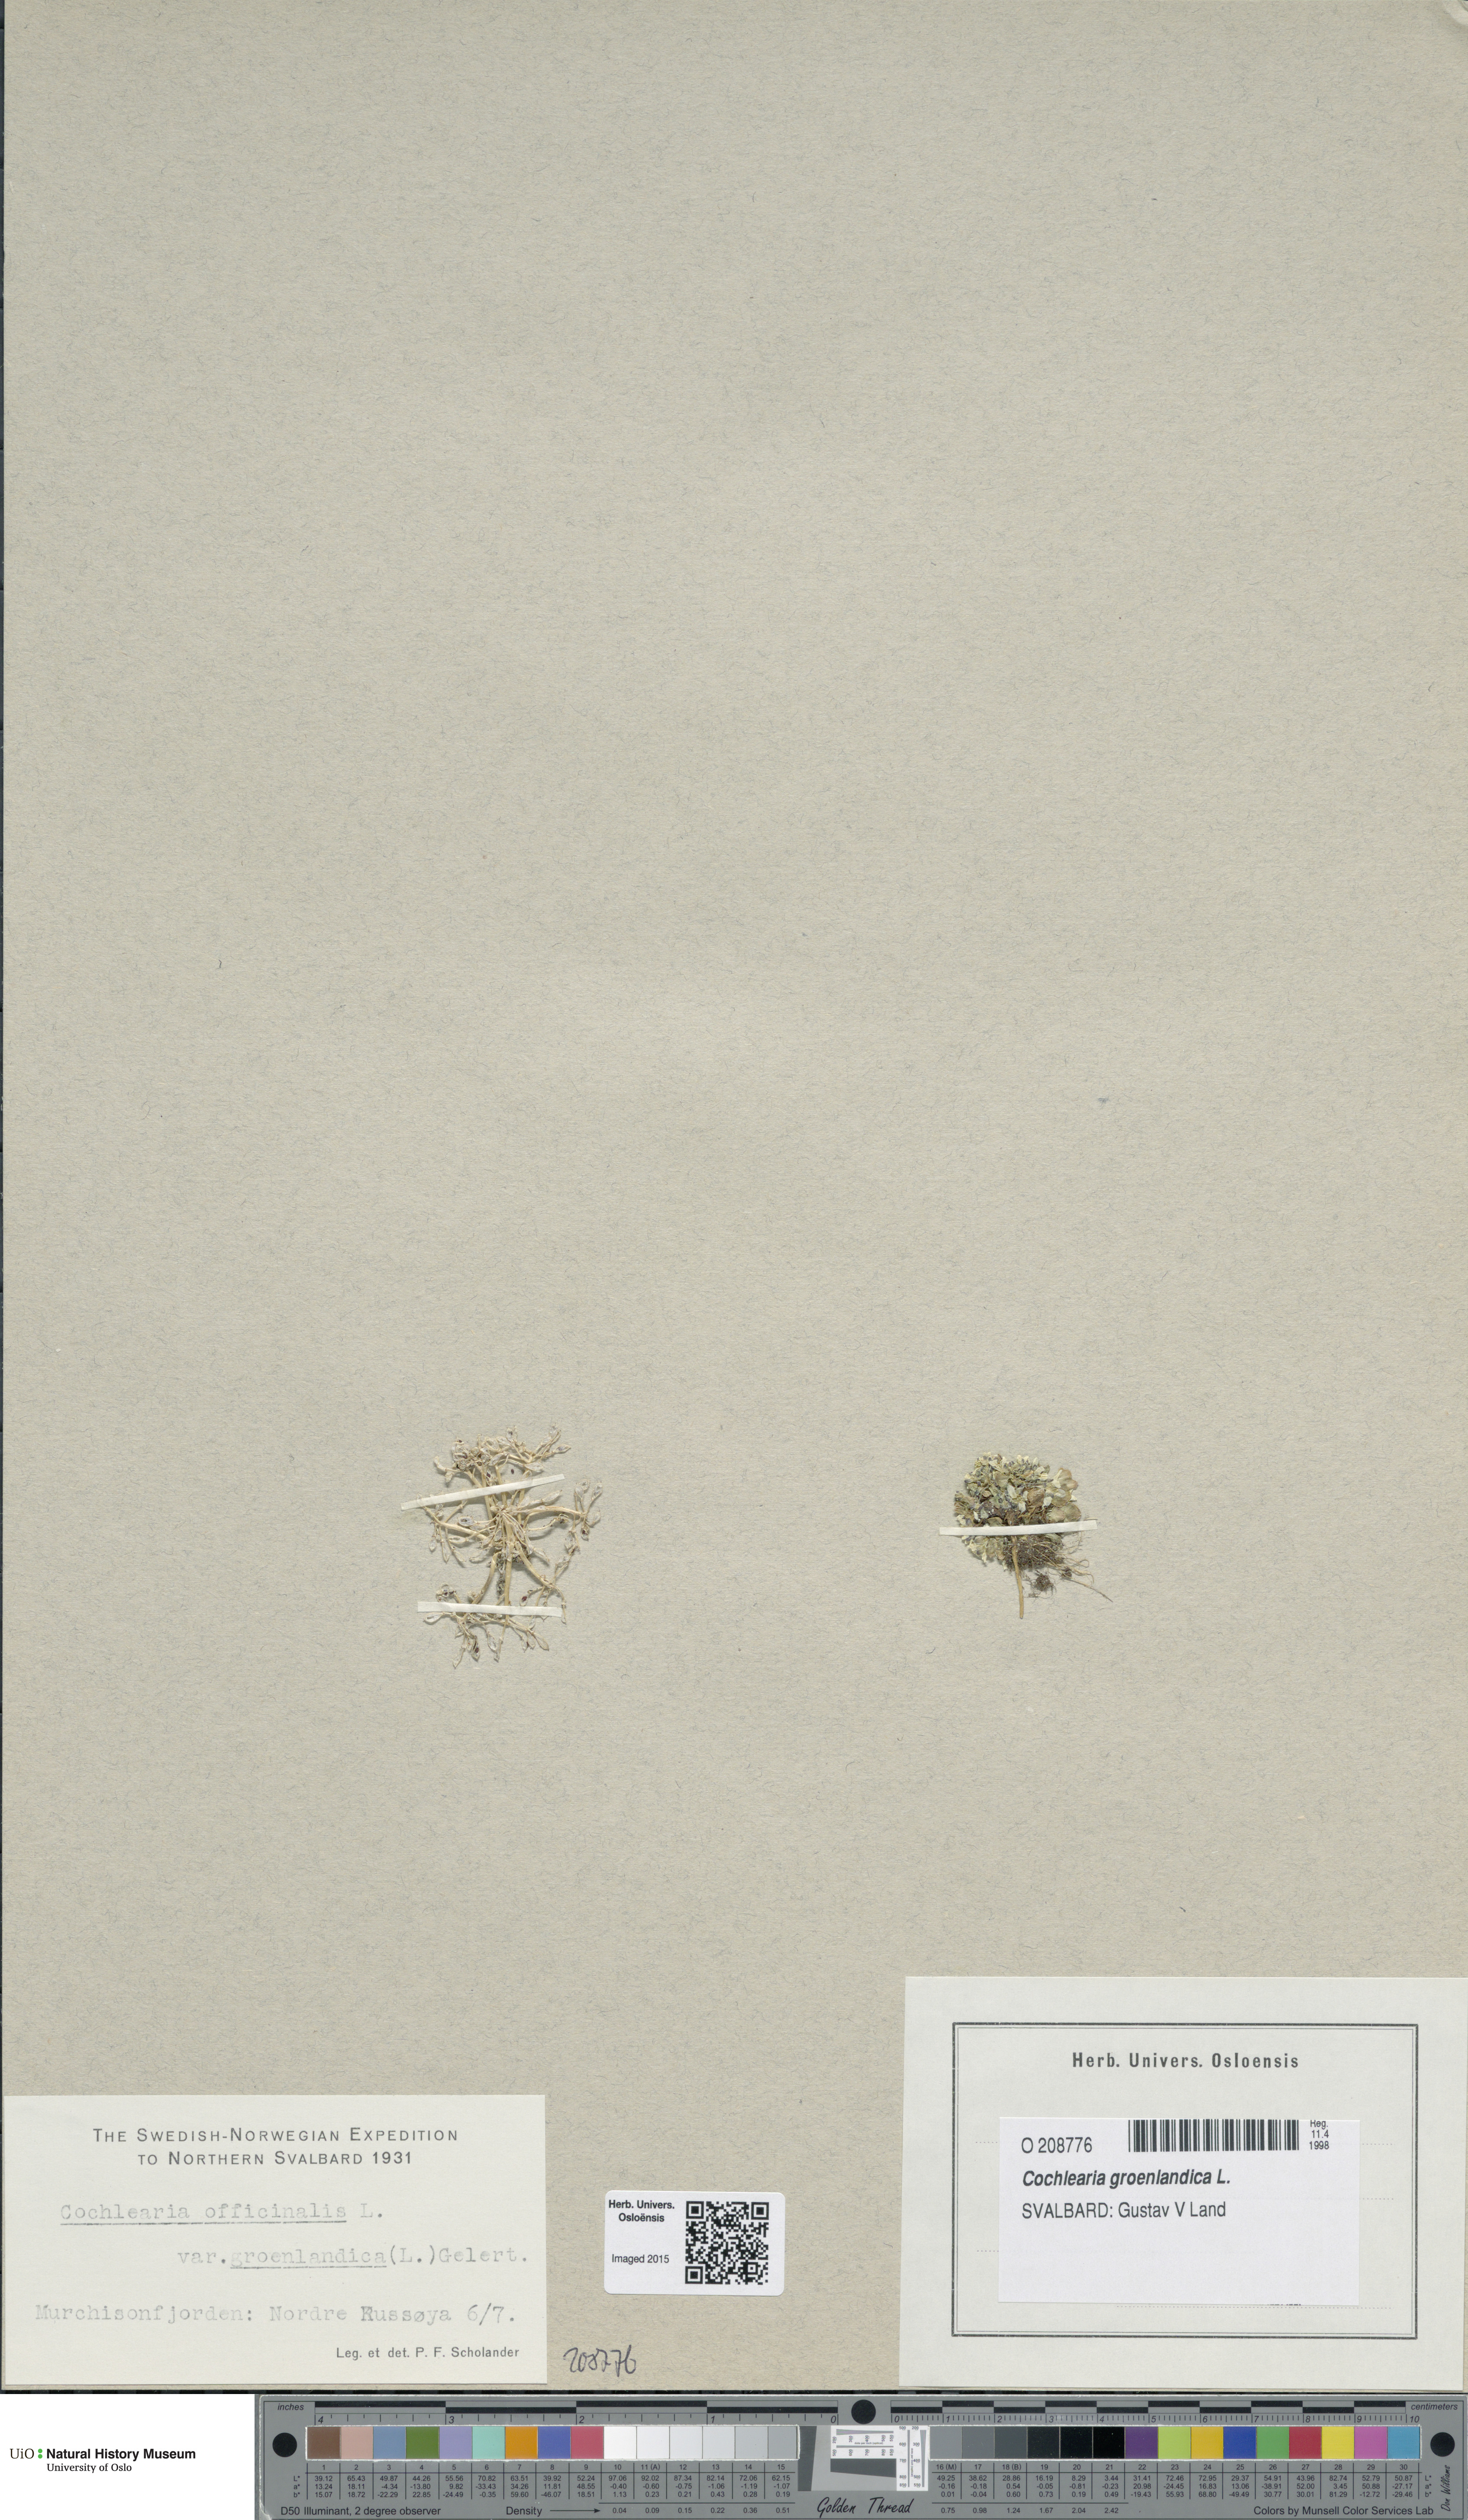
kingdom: Plantae
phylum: Tracheophyta
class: Magnoliopsida
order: Brassicales
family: Brassicaceae
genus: Cochlearia
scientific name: Cochlearia groenlandica
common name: Danish scurvygrass
